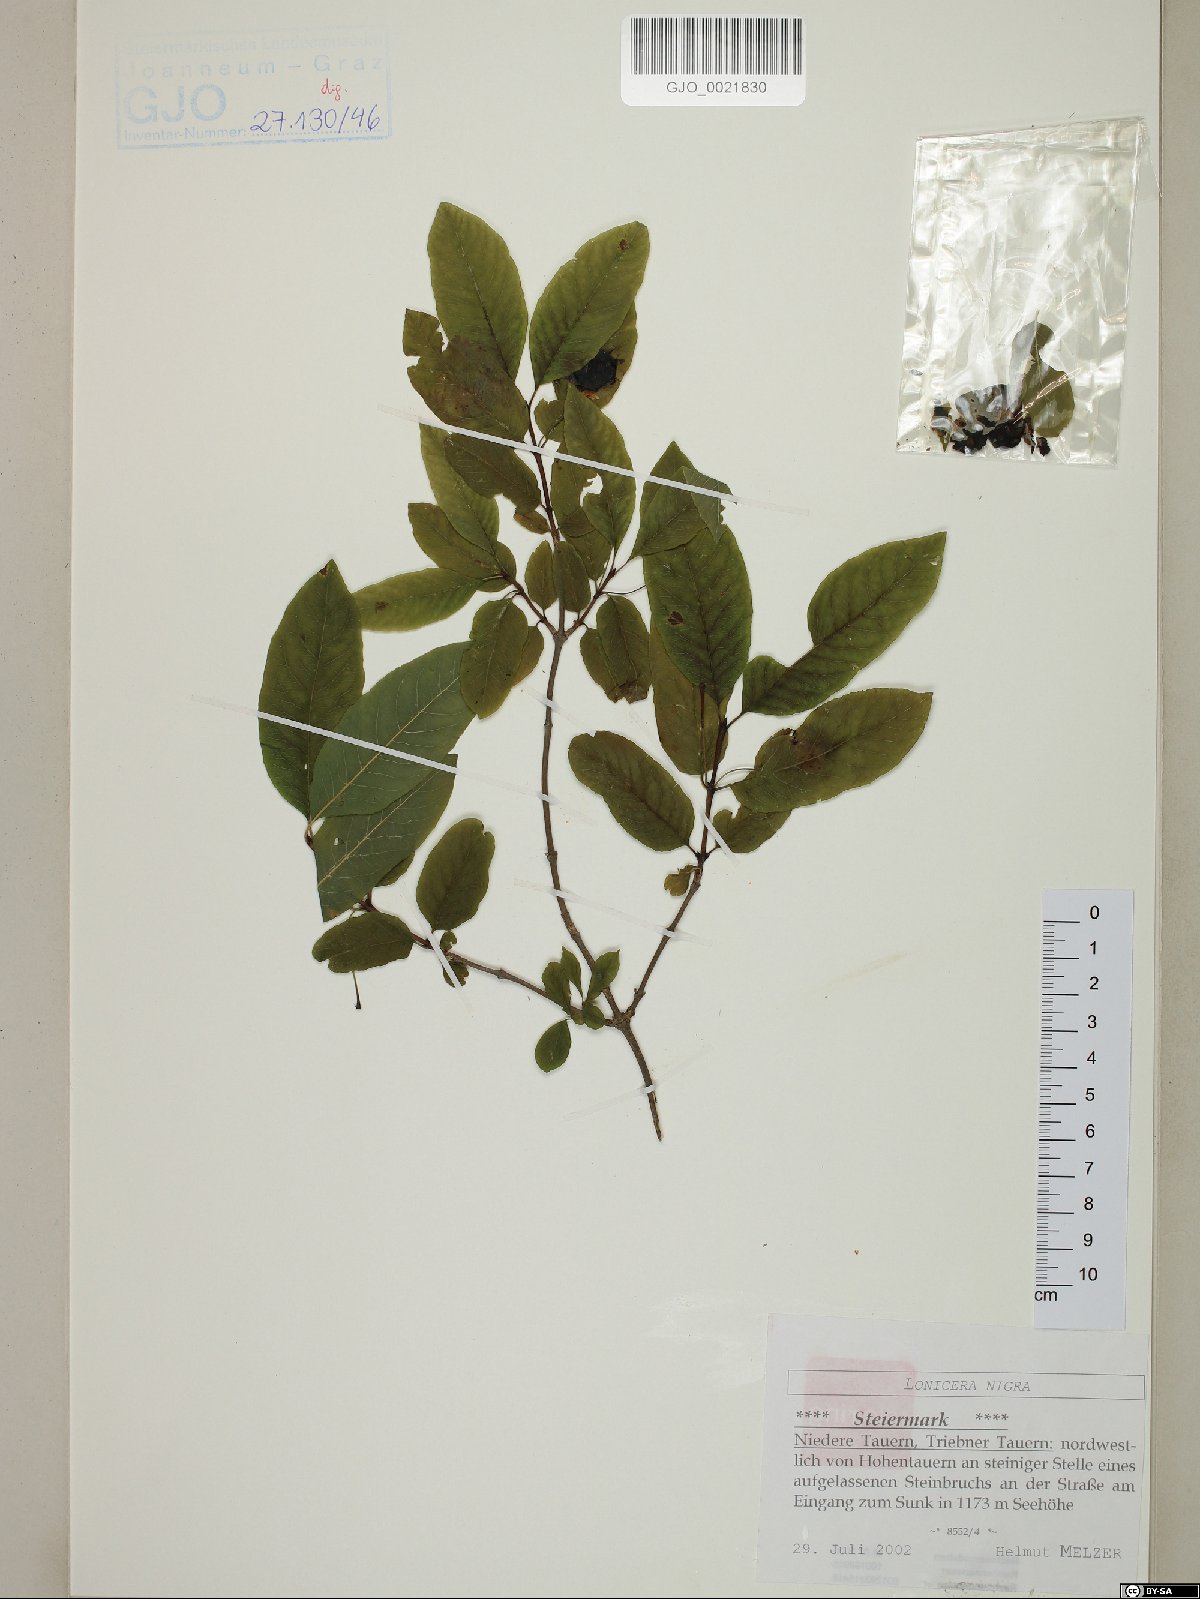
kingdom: Plantae
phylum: Tracheophyta
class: Magnoliopsida
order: Dipsacales
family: Caprifoliaceae
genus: Lonicera
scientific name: Lonicera nigra
